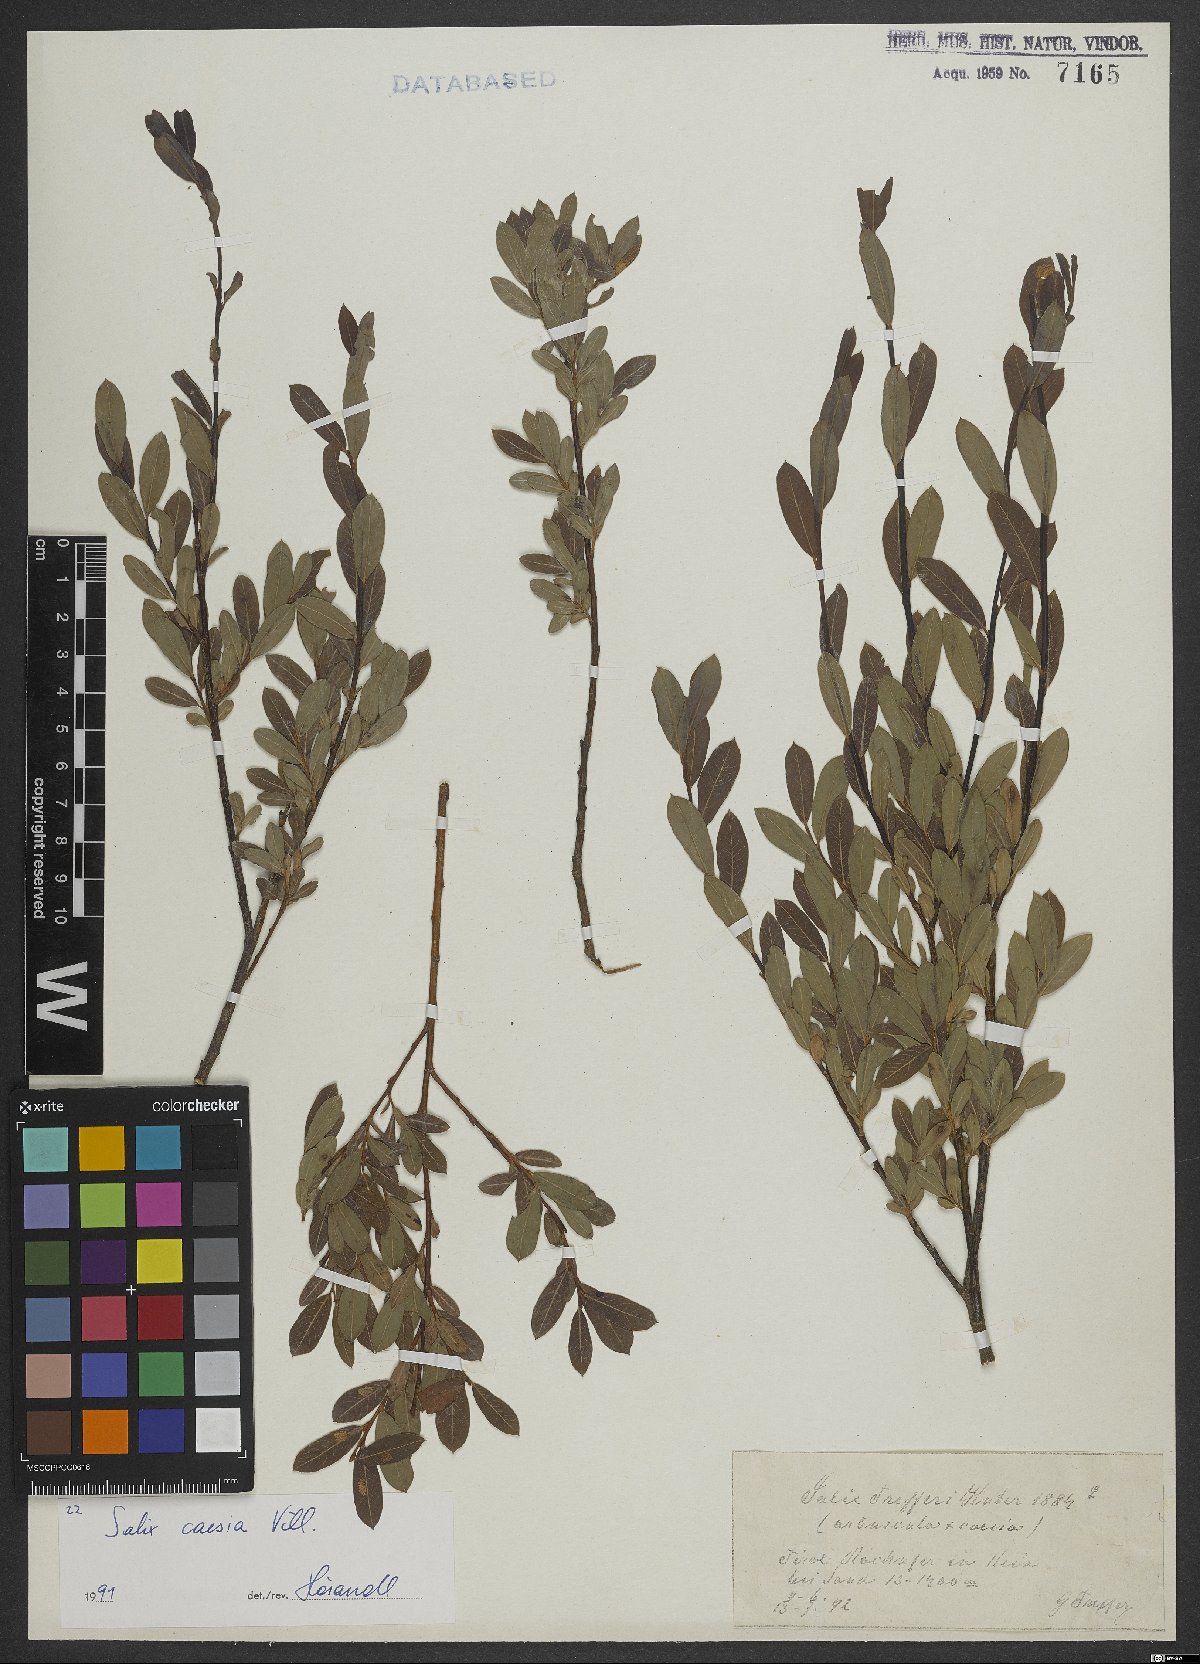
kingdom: Plantae
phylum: Tracheophyta
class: Magnoliopsida
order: Malpighiales
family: Salicaceae
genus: Salix
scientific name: Salix caesia
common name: Blue willow
